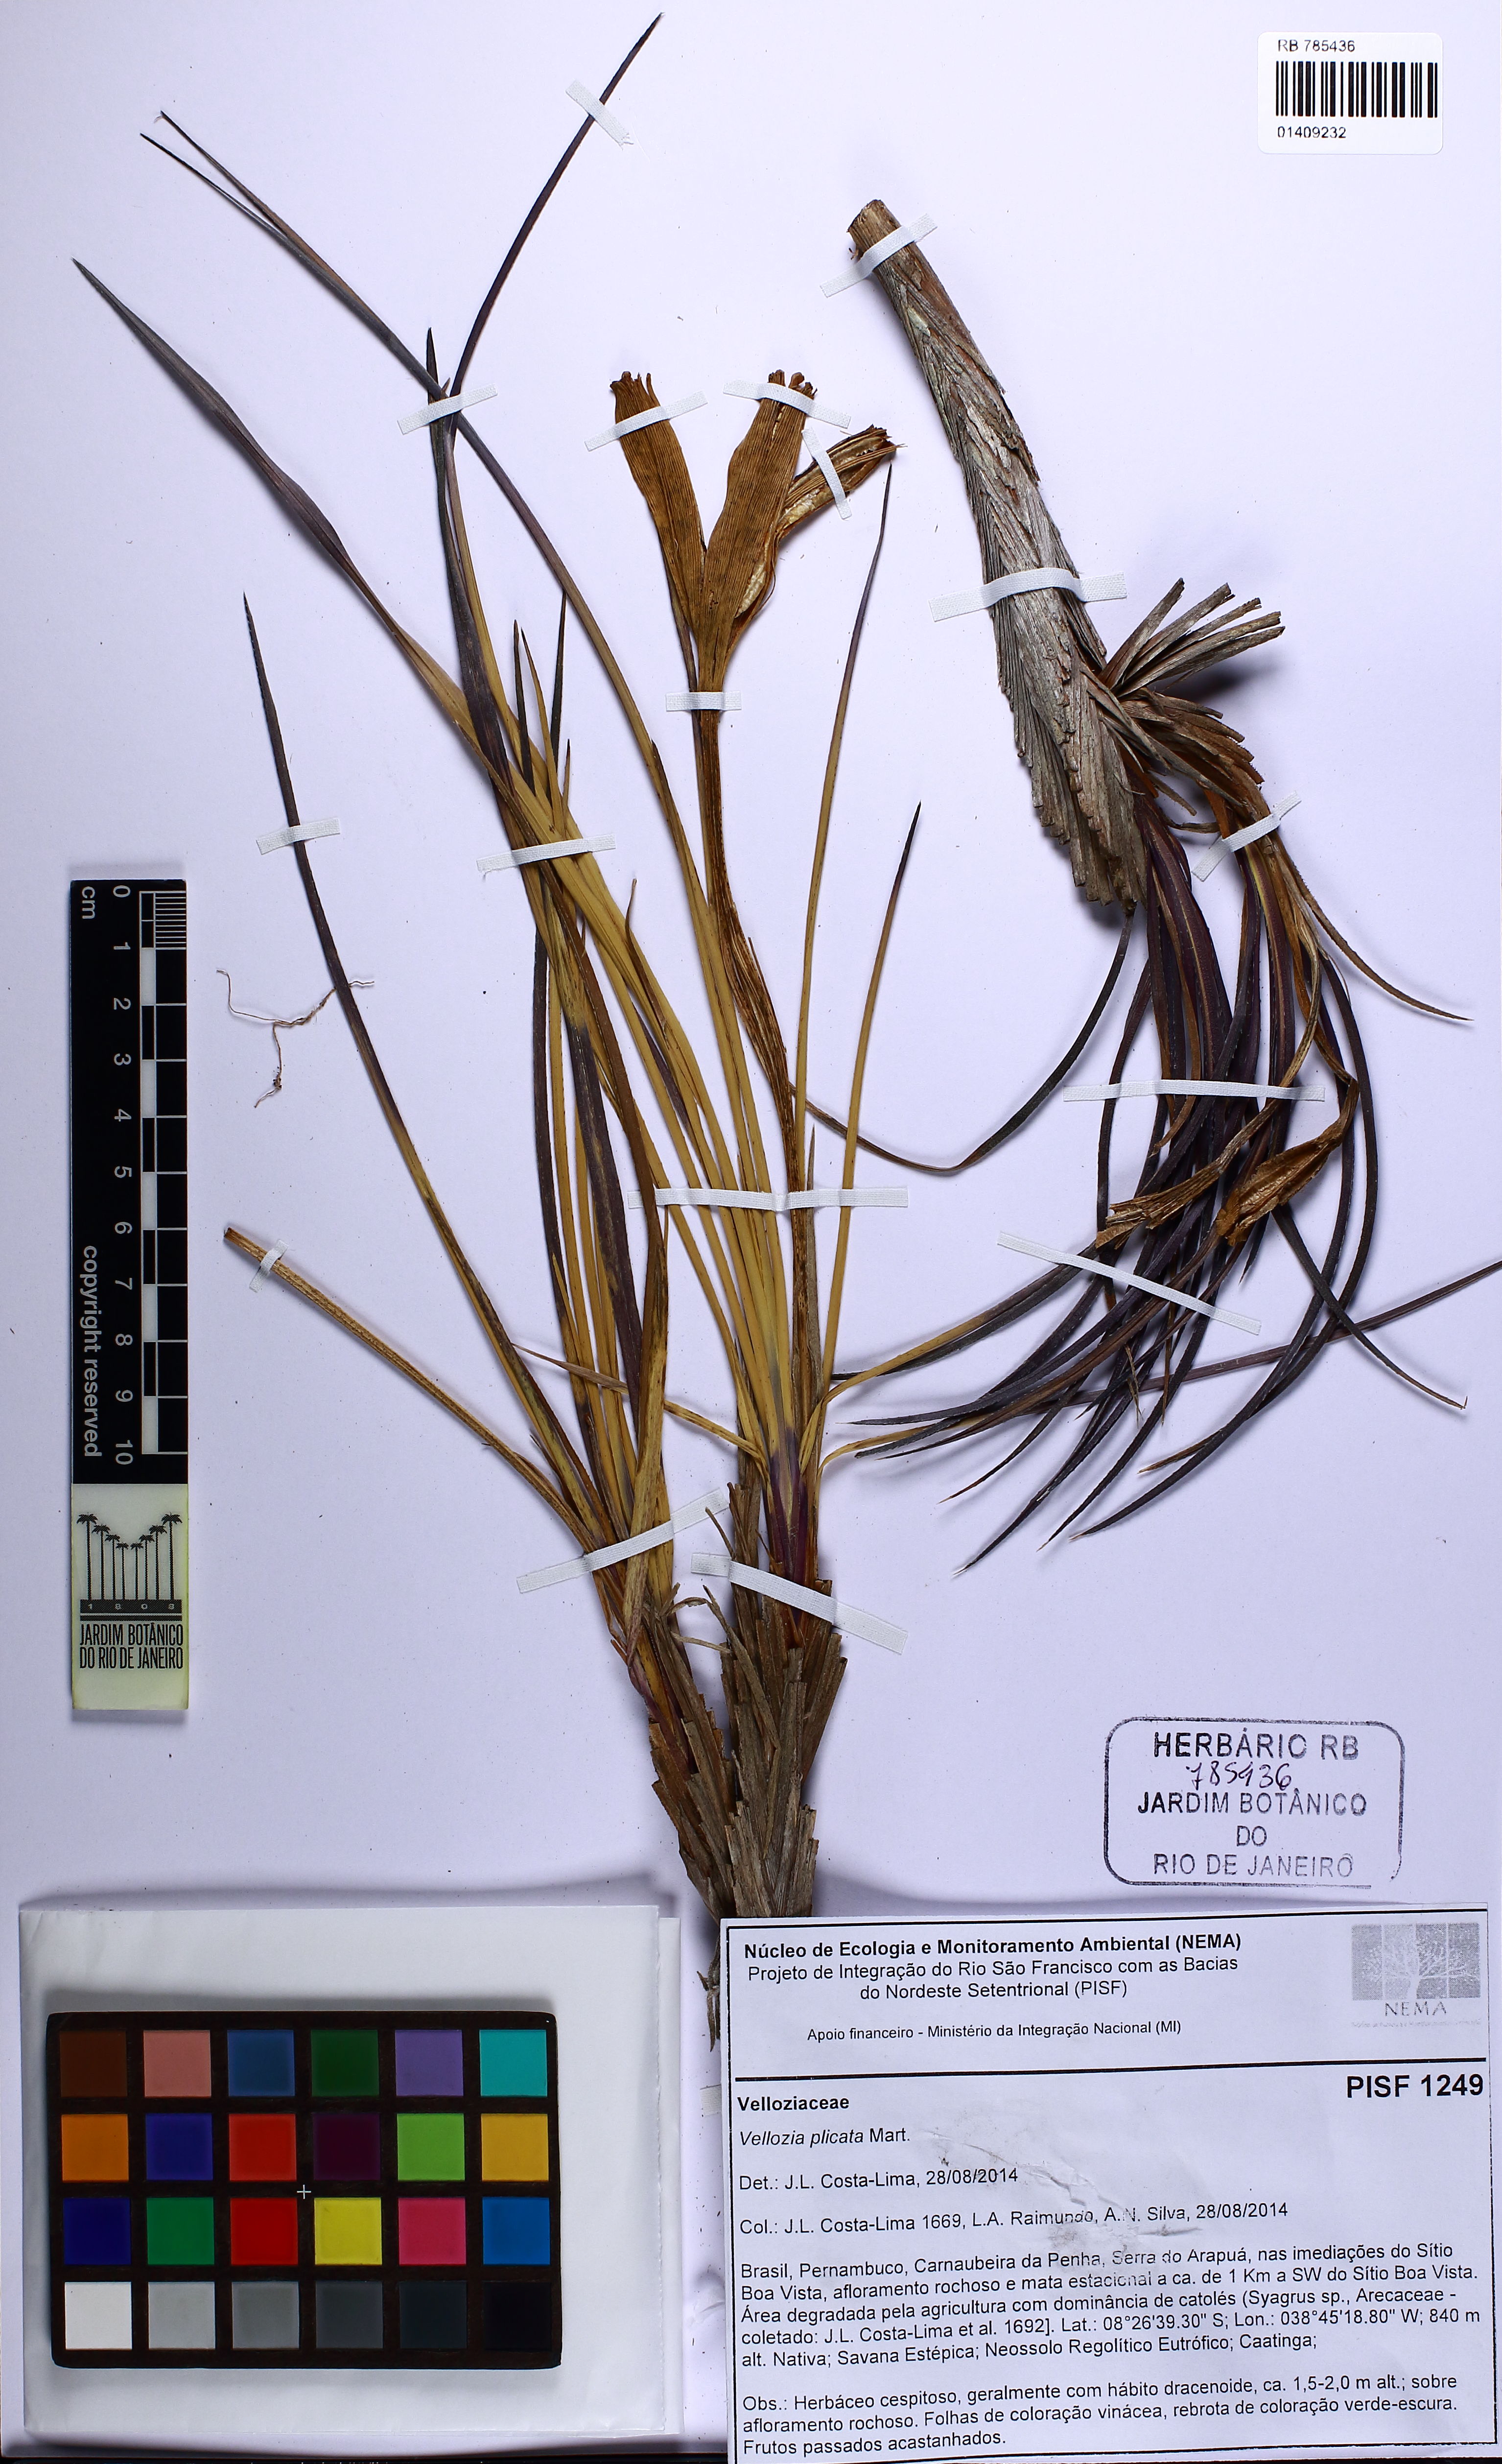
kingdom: Plantae
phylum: Tracheophyta
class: Liliopsida
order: Pandanales
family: Velloziaceae
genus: Nanuza
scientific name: Nanuza plicata
